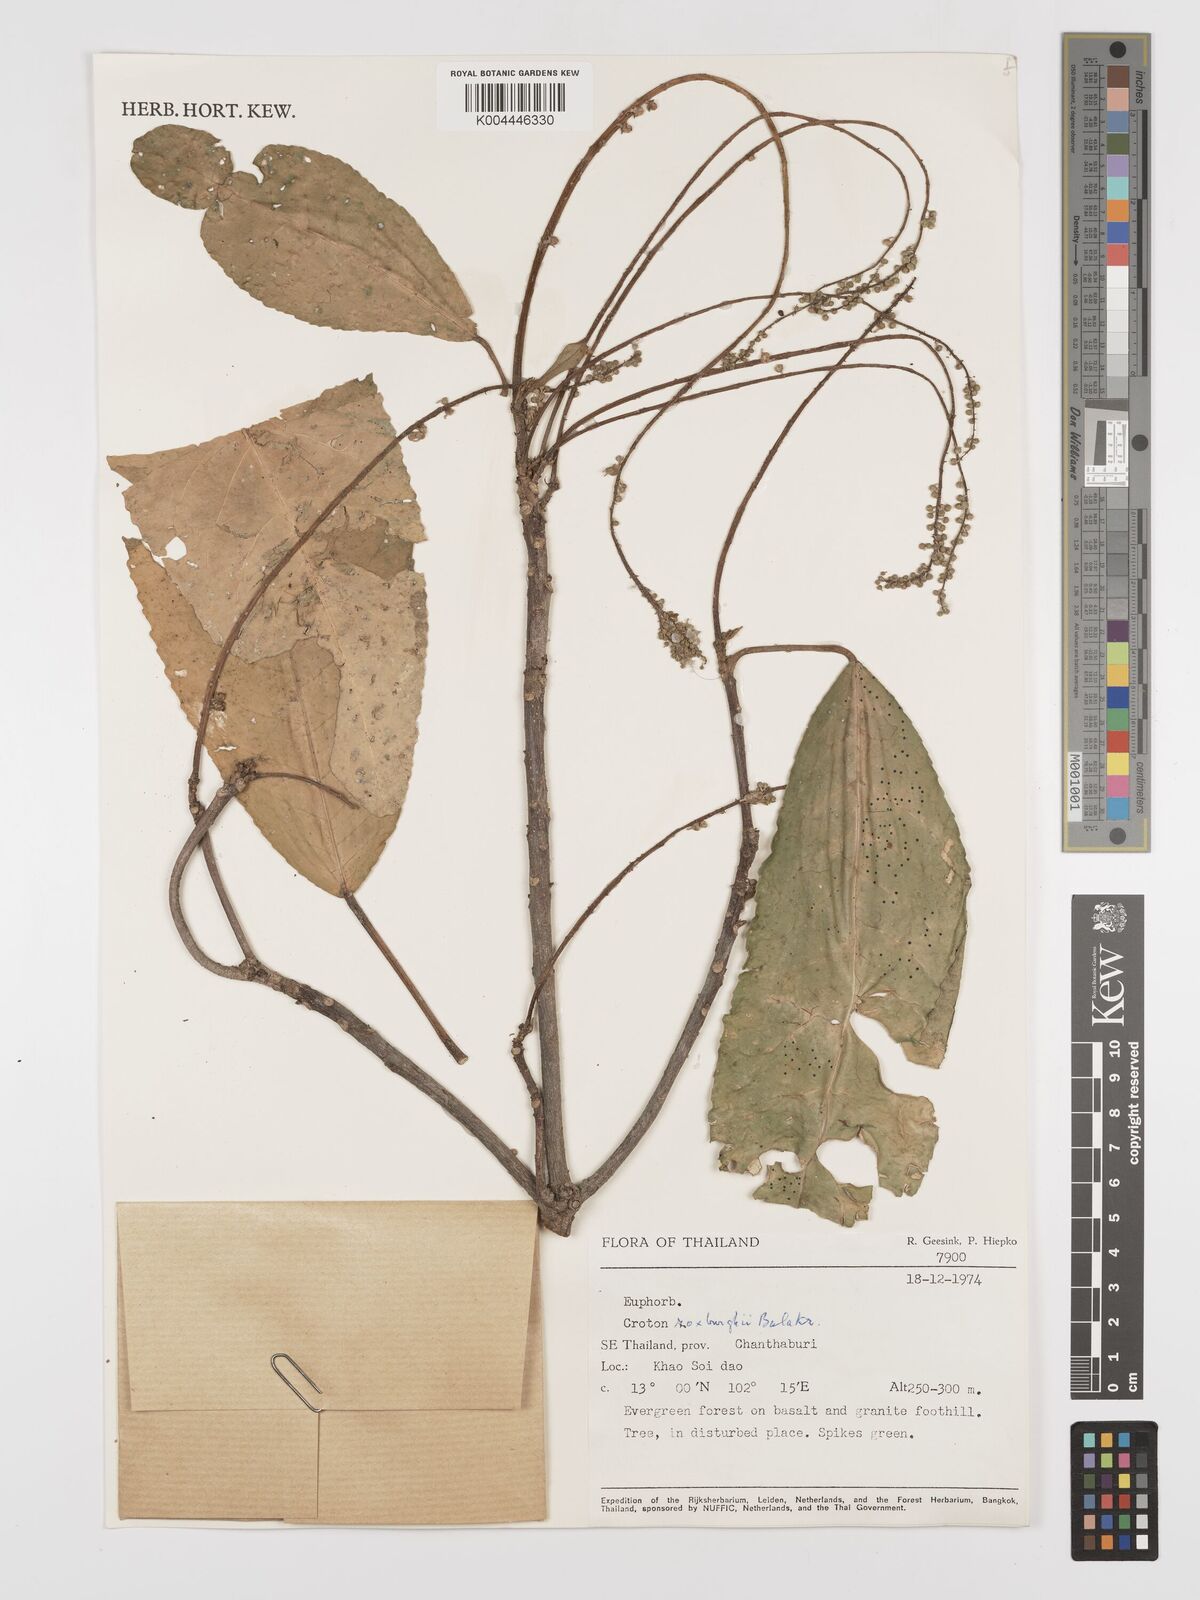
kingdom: Plantae
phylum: Tracheophyta
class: Magnoliopsida
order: Malpighiales
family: Euphorbiaceae
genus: Baliospermum
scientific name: Baliospermum solanifolium
